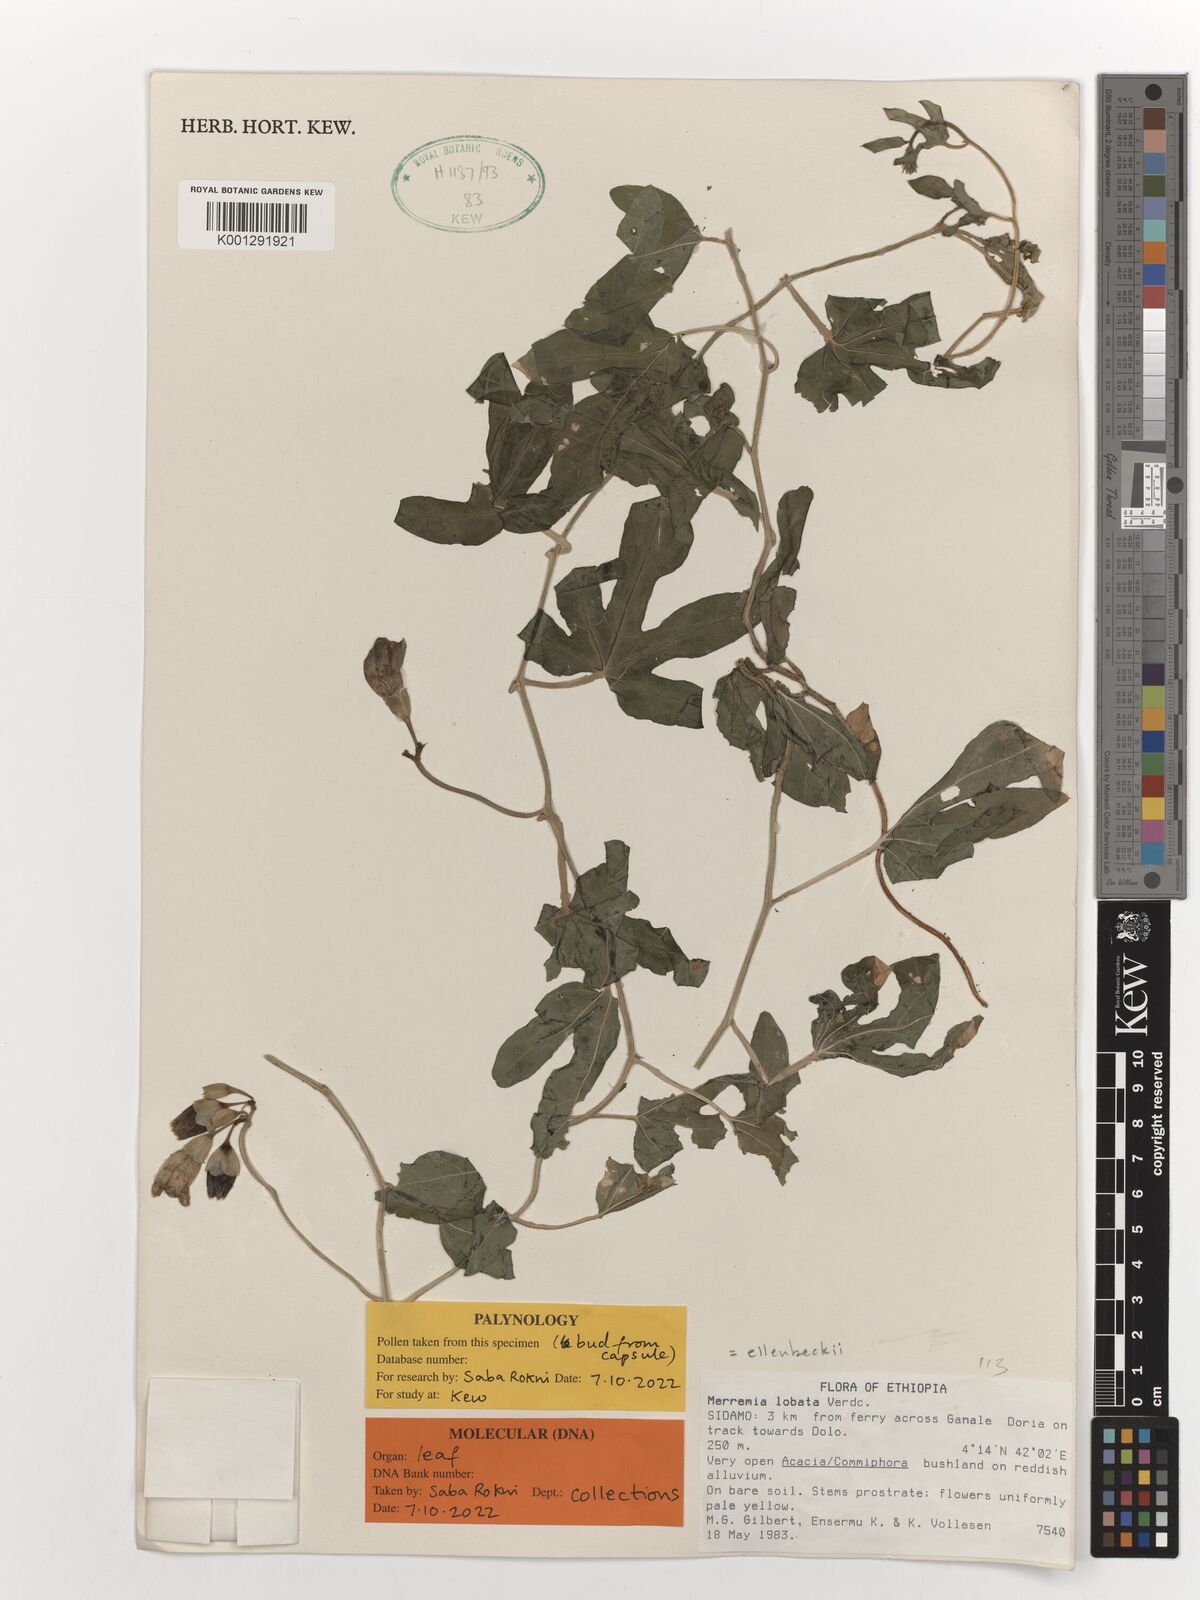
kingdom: Plantae
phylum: Tracheophyta
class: Magnoliopsida
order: Solanales
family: Convolvulaceae
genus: Merremia
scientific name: Merremia ellenbeckii
